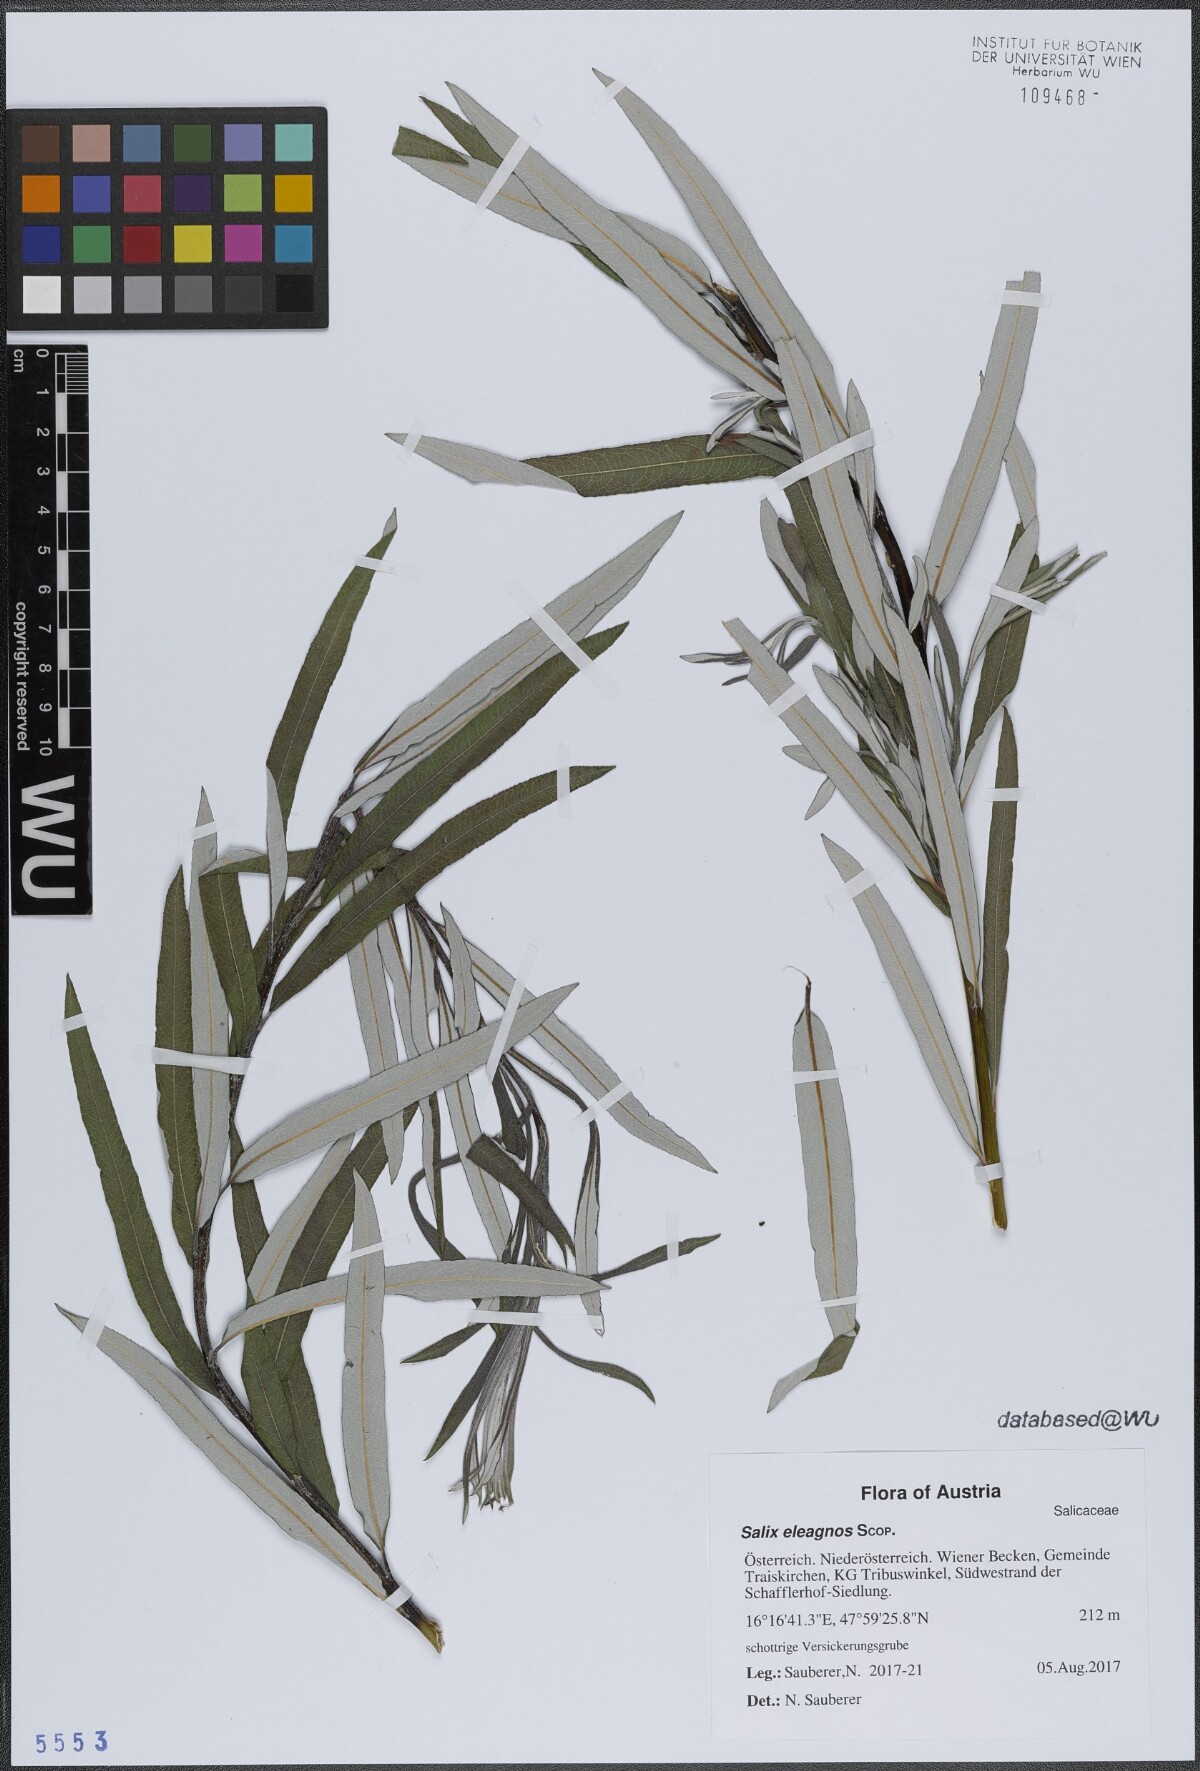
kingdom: Plantae
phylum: Tracheophyta
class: Magnoliopsida
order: Malpighiales
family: Salicaceae
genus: Salix
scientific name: Salix eleagnos
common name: Elaeagnus willow
